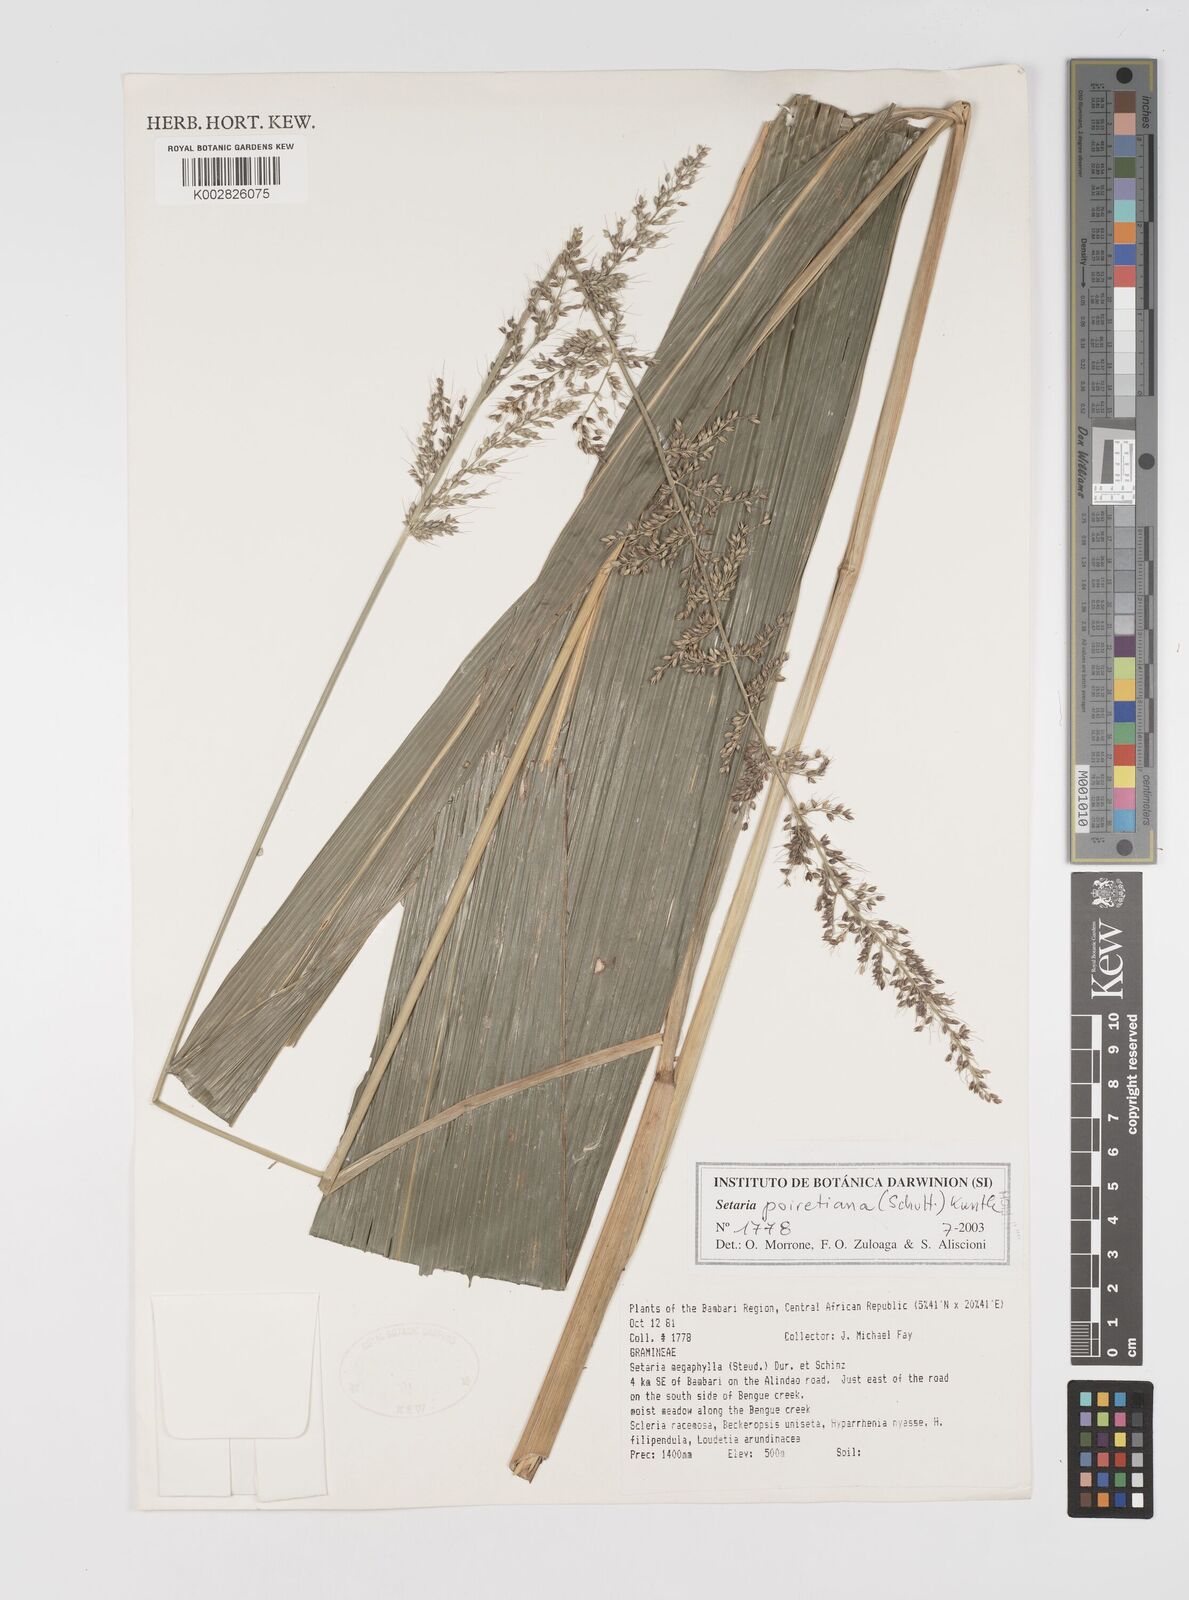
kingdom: Plantae
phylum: Tracheophyta
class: Liliopsida
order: Poales
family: Poaceae
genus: Setaria
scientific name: Setaria poiretiana
